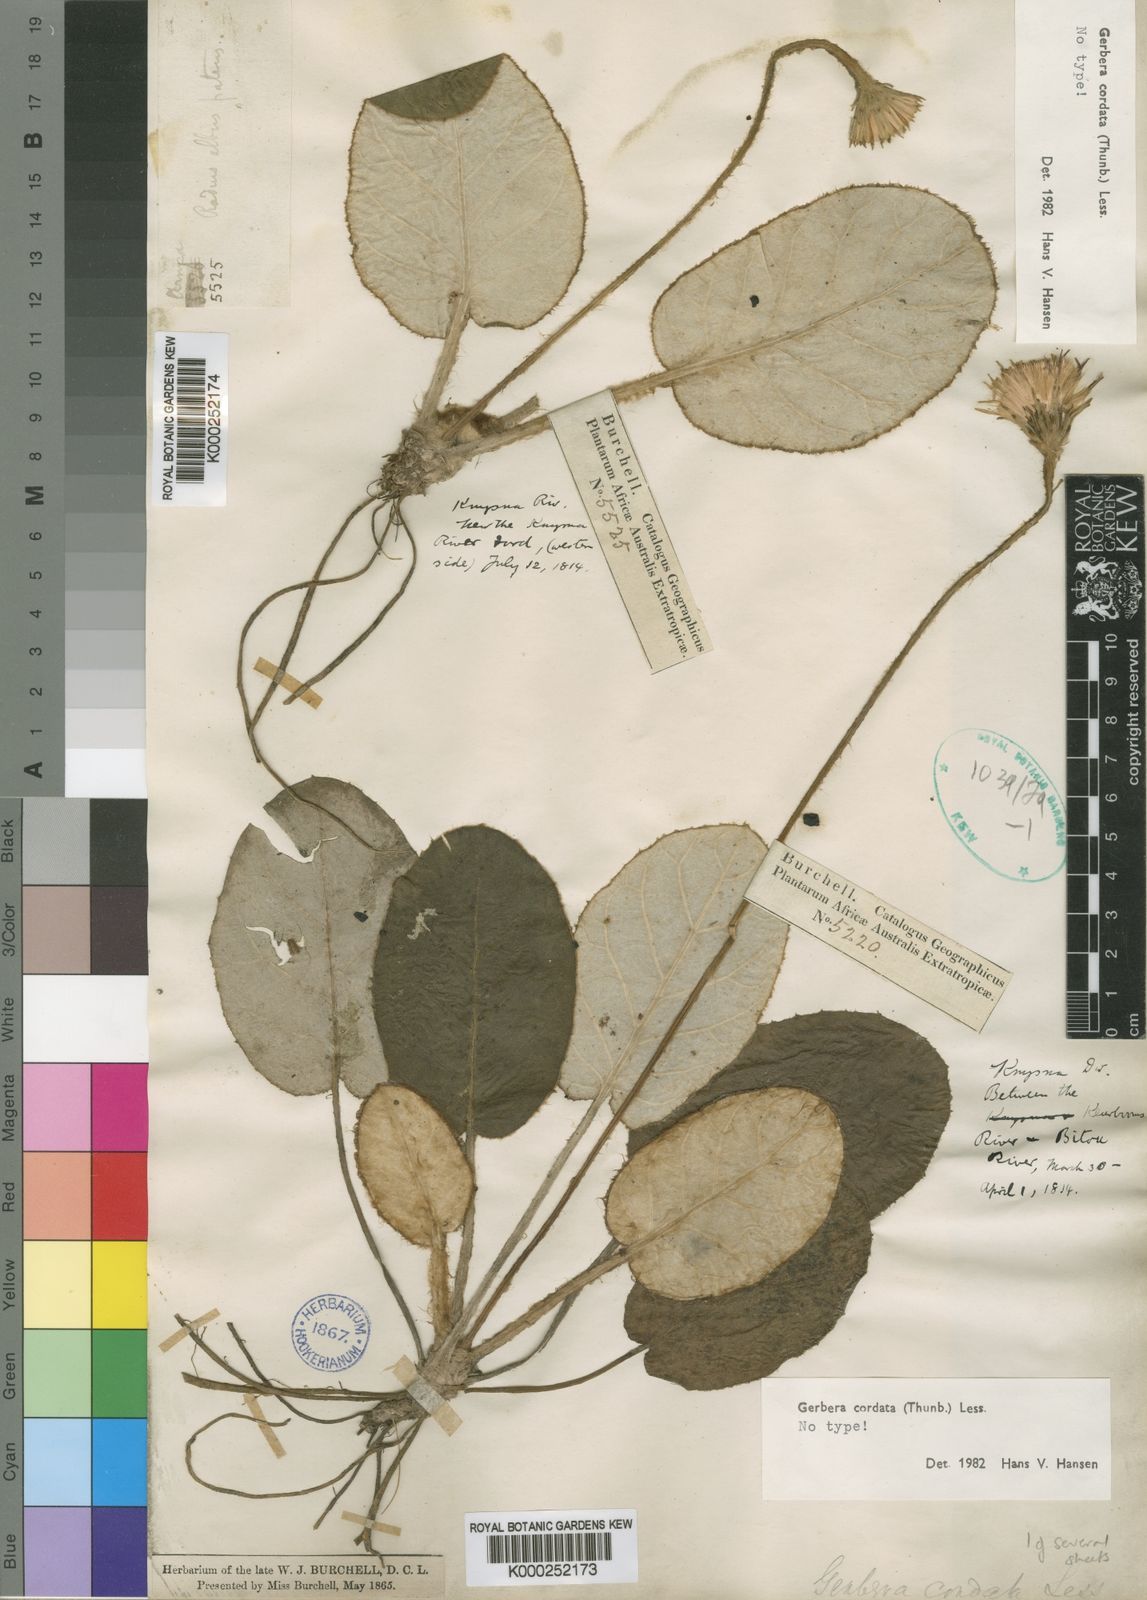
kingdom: Plantae
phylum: Tracheophyta
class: Magnoliopsida
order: Asterales
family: Asteraceae
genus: Piloselloides
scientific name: Piloselloides cordata
